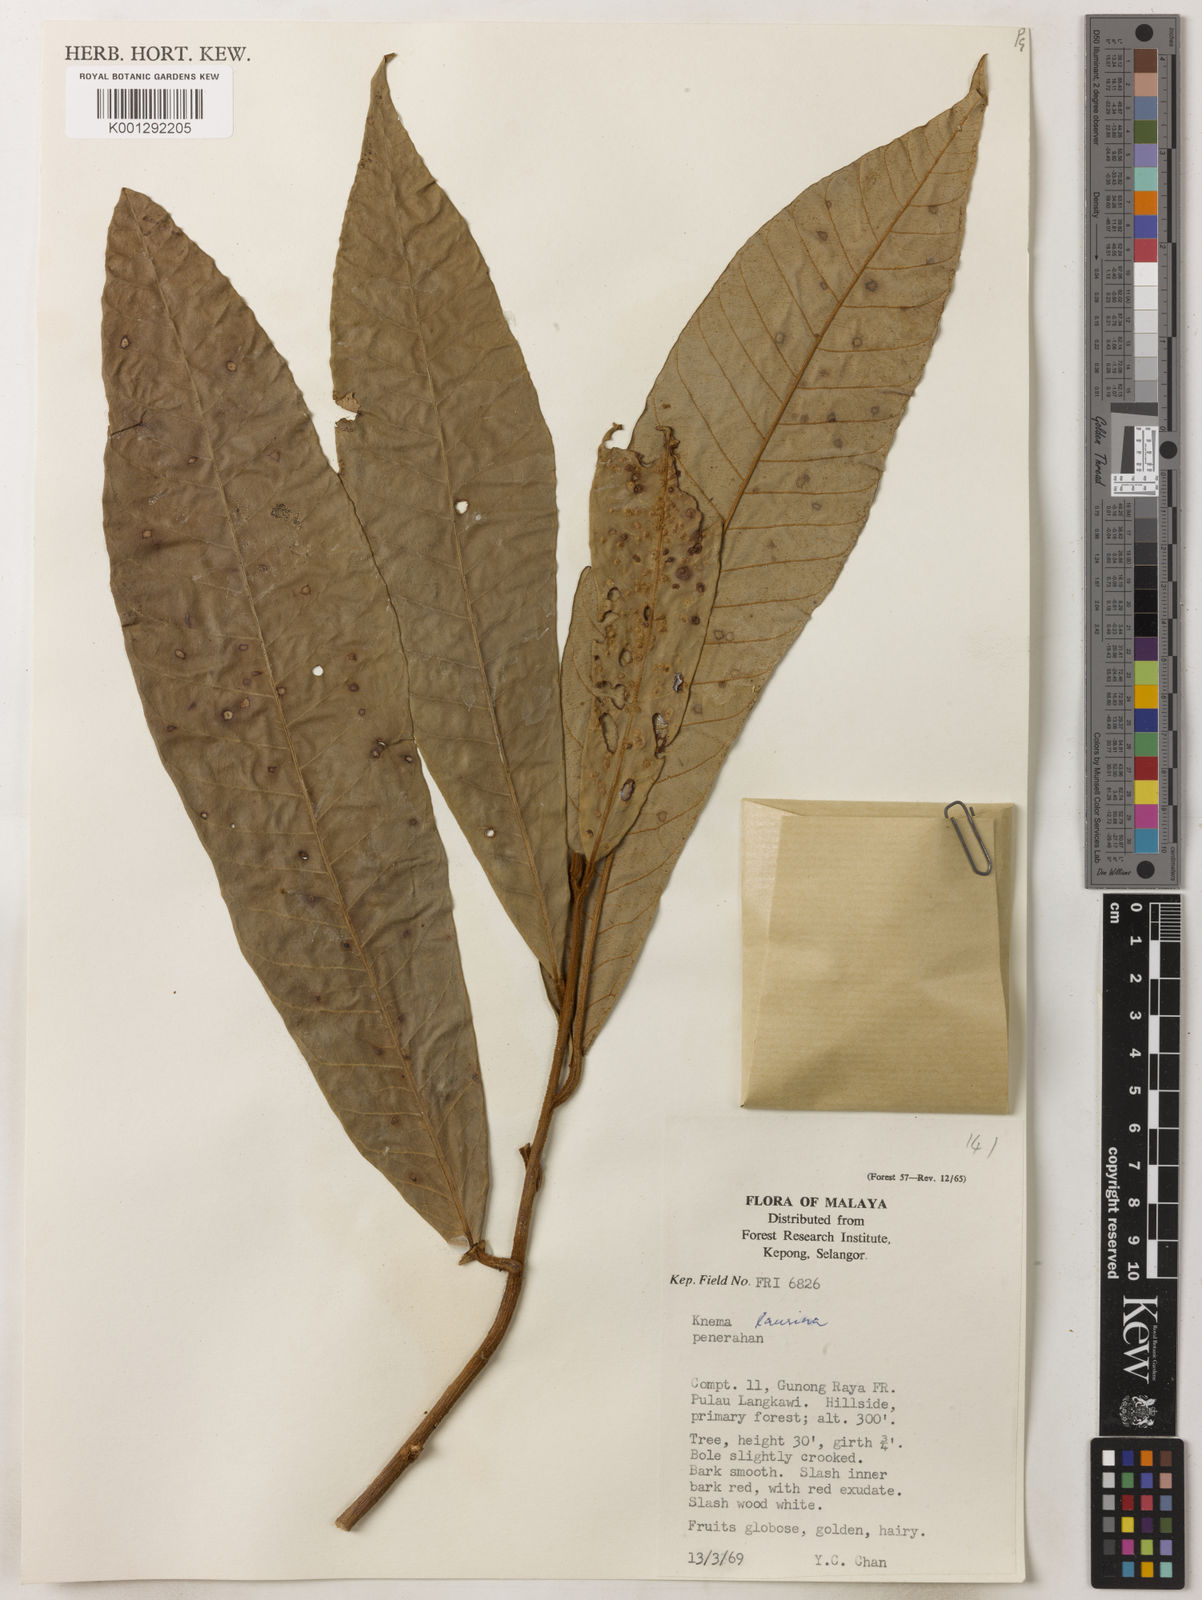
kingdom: Plantae
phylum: Tracheophyta
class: Magnoliopsida
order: Magnoliales
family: Myristicaceae
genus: Knema
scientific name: Knema laurina
